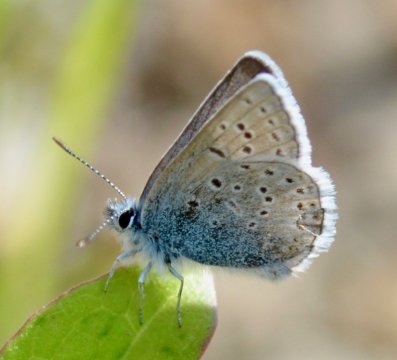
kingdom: Animalia
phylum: Arthropoda
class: Insecta
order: Lepidoptera
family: Lycaenidae
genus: Plebejus
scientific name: Plebejus saepiolus
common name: Greenish Blue
